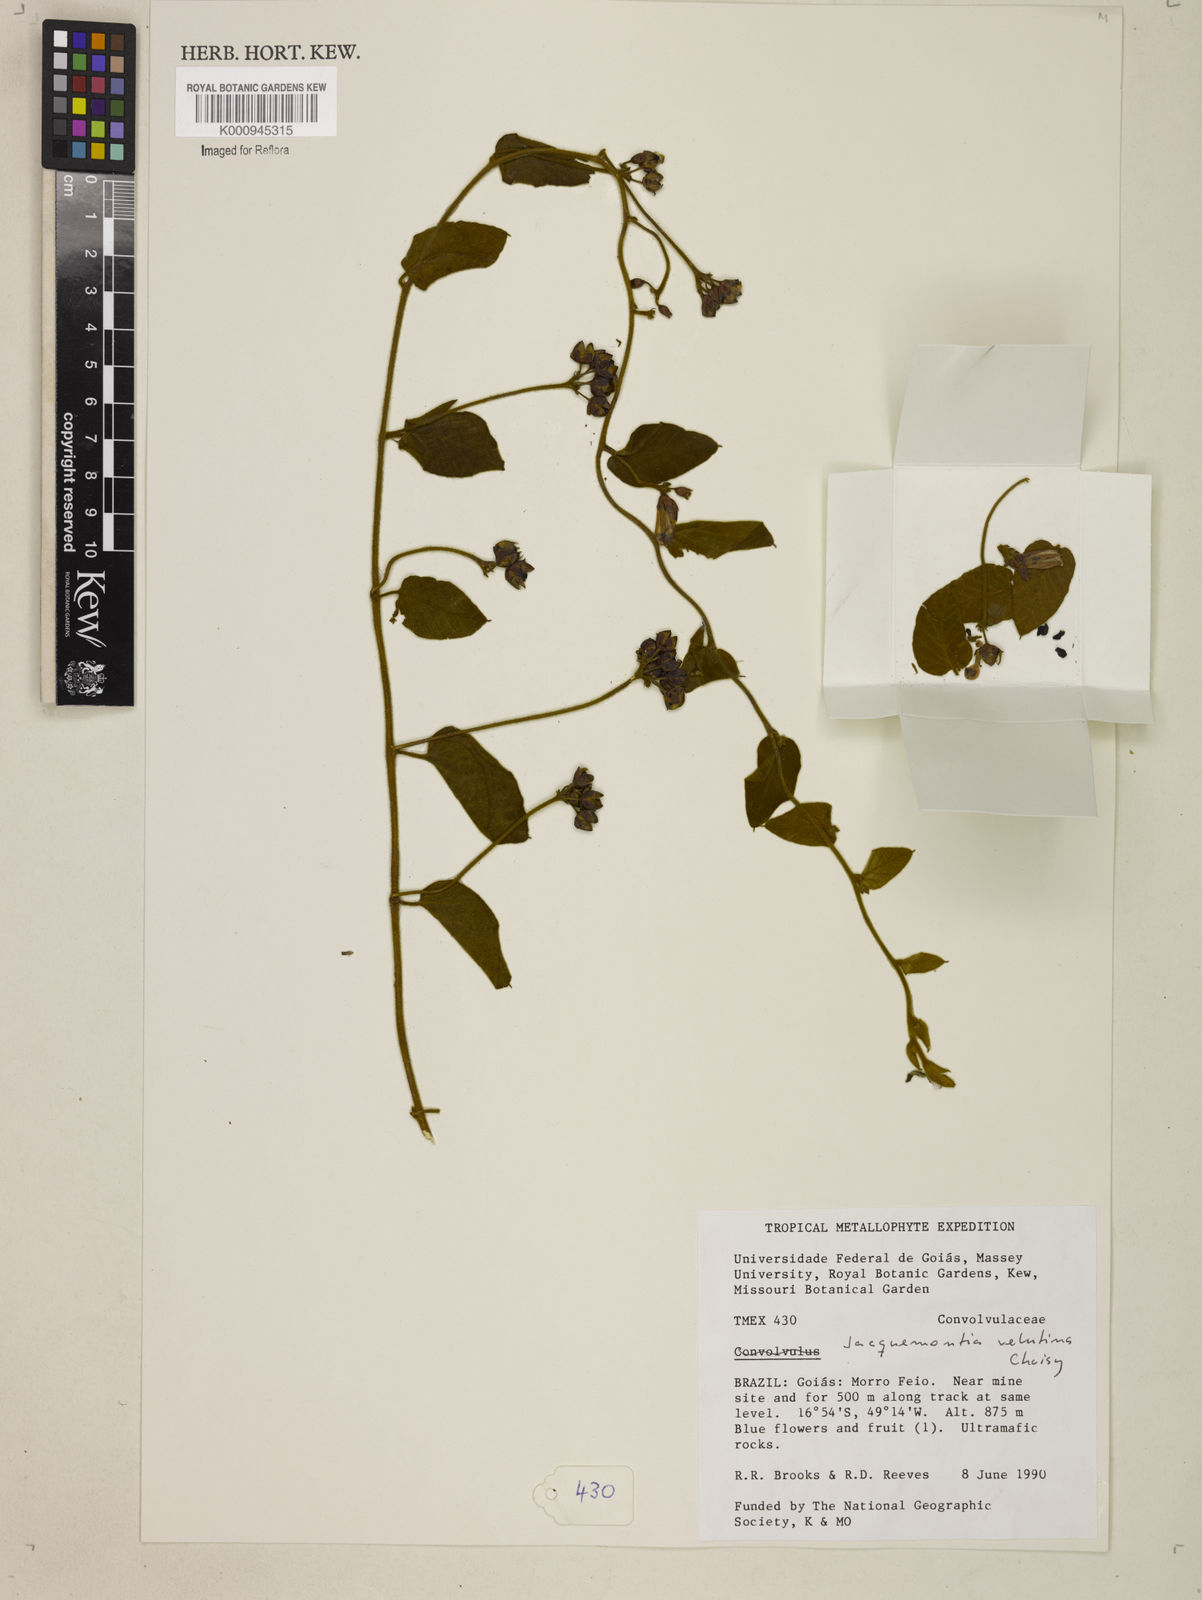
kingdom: Plantae
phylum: Tracheophyta
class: Magnoliopsida
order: Solanales
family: Convolvulaceae
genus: Jacquemontia
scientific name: Jacquemontia velutina
